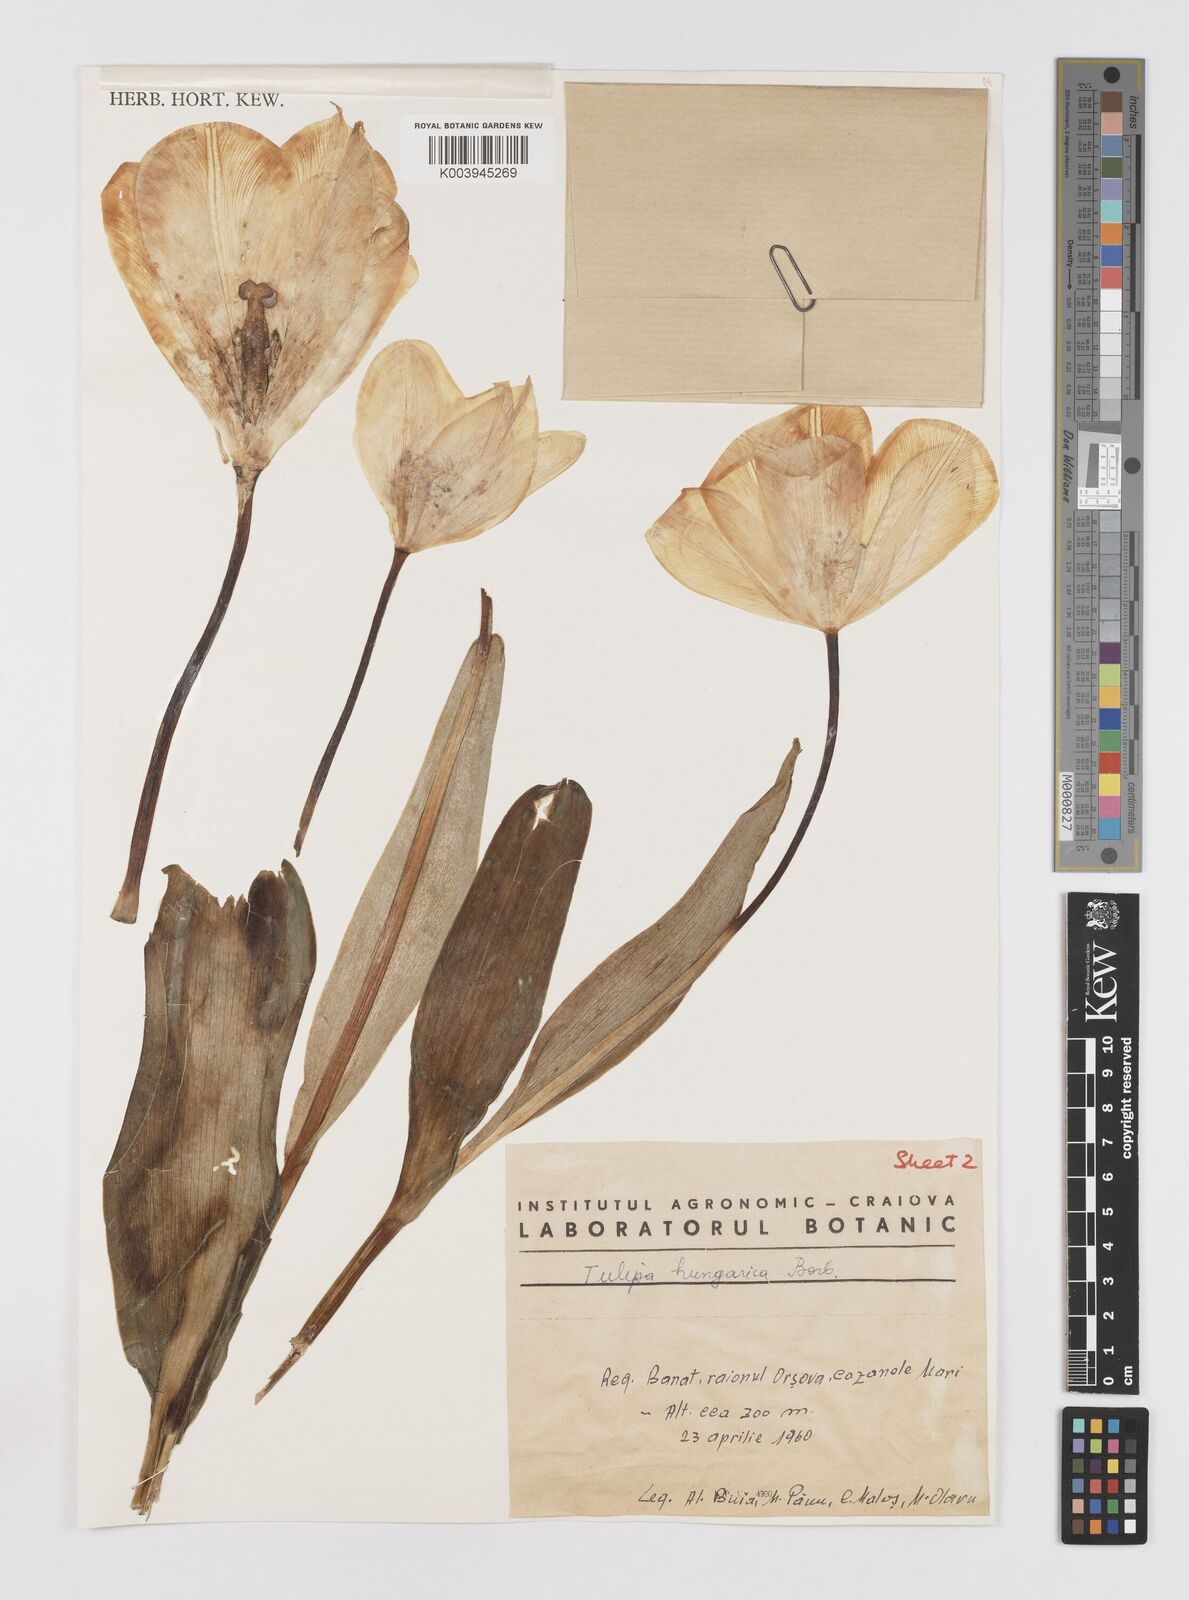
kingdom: Plantae
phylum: Tracheophyta
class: Liliopsida
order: Liliales
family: Liliaceae
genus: Tulipa
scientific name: Tulipa hungarica
